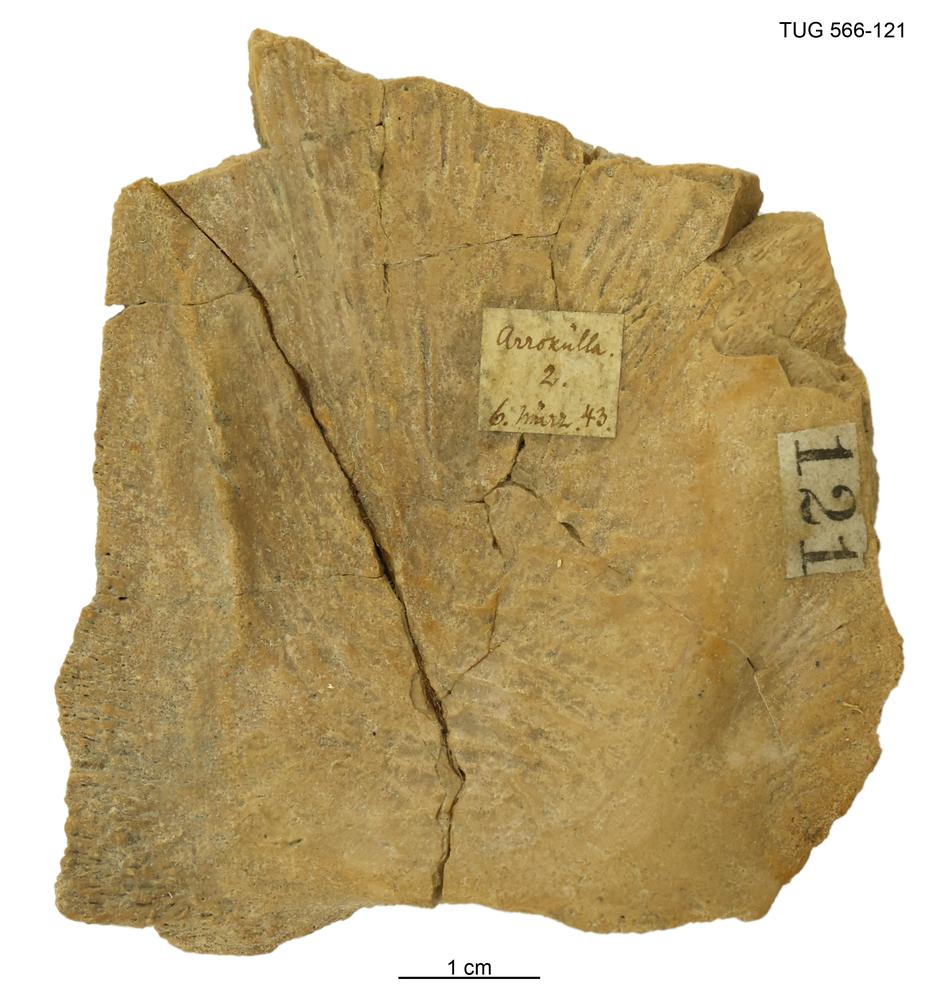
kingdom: Animalia
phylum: Chordata
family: Homostiidae
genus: Homostius
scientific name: Homostius
